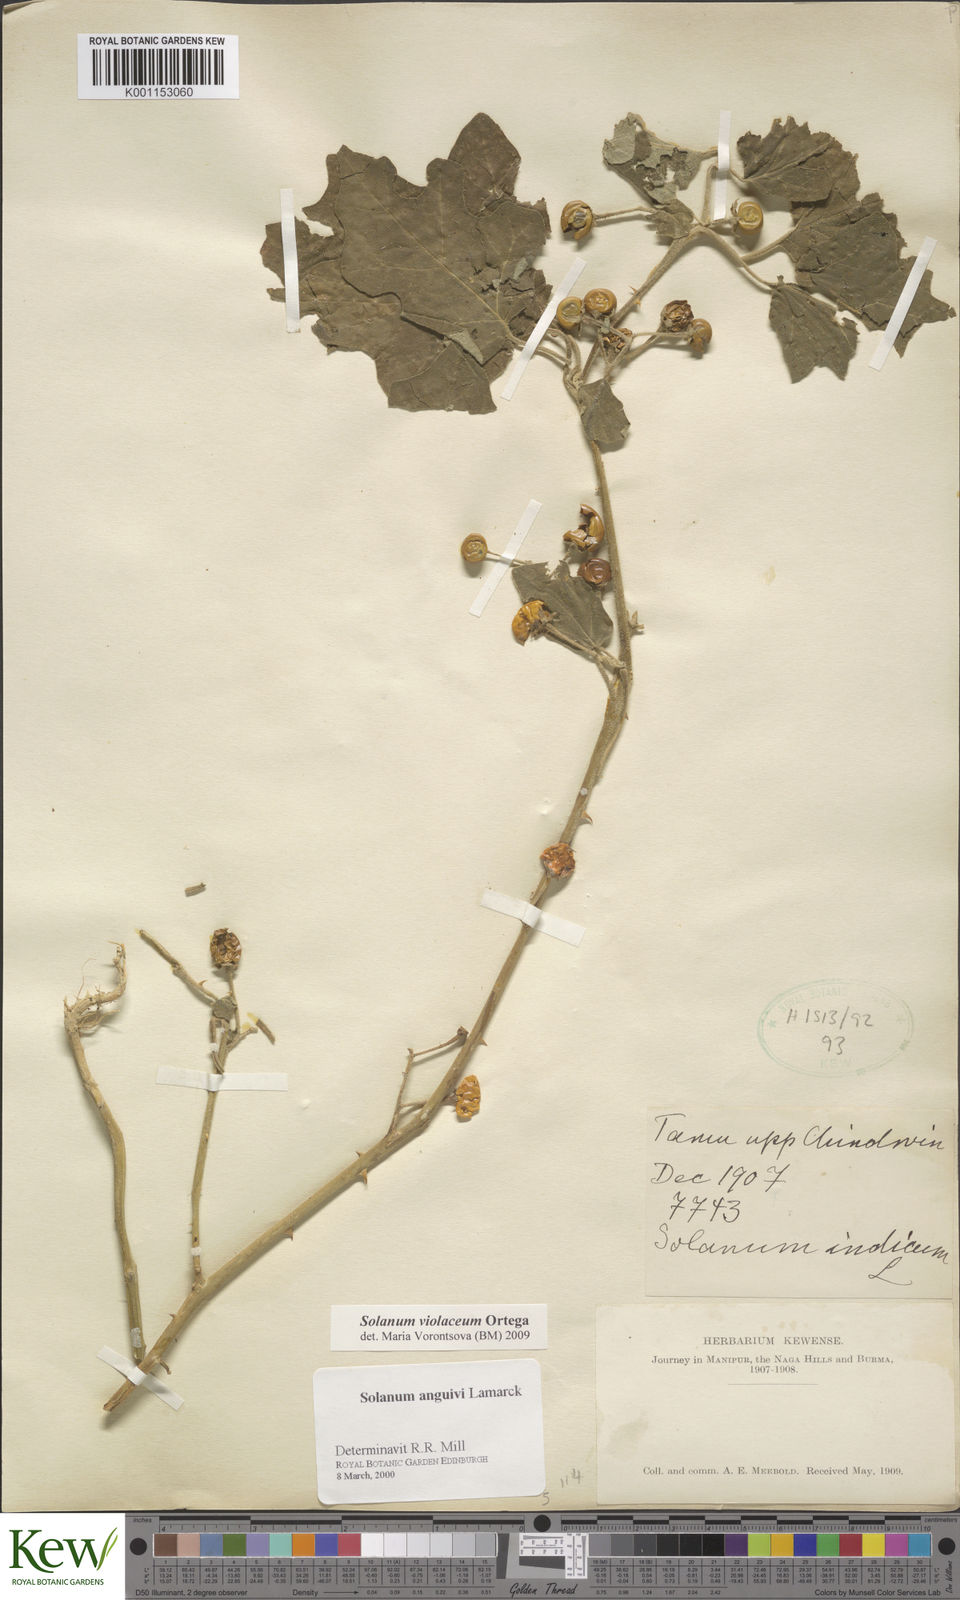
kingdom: Plantae
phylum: Tracheophyta
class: Magnoliopsida
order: Solanales
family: Solanaceae
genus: Solanum
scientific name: Solanum violaceum
